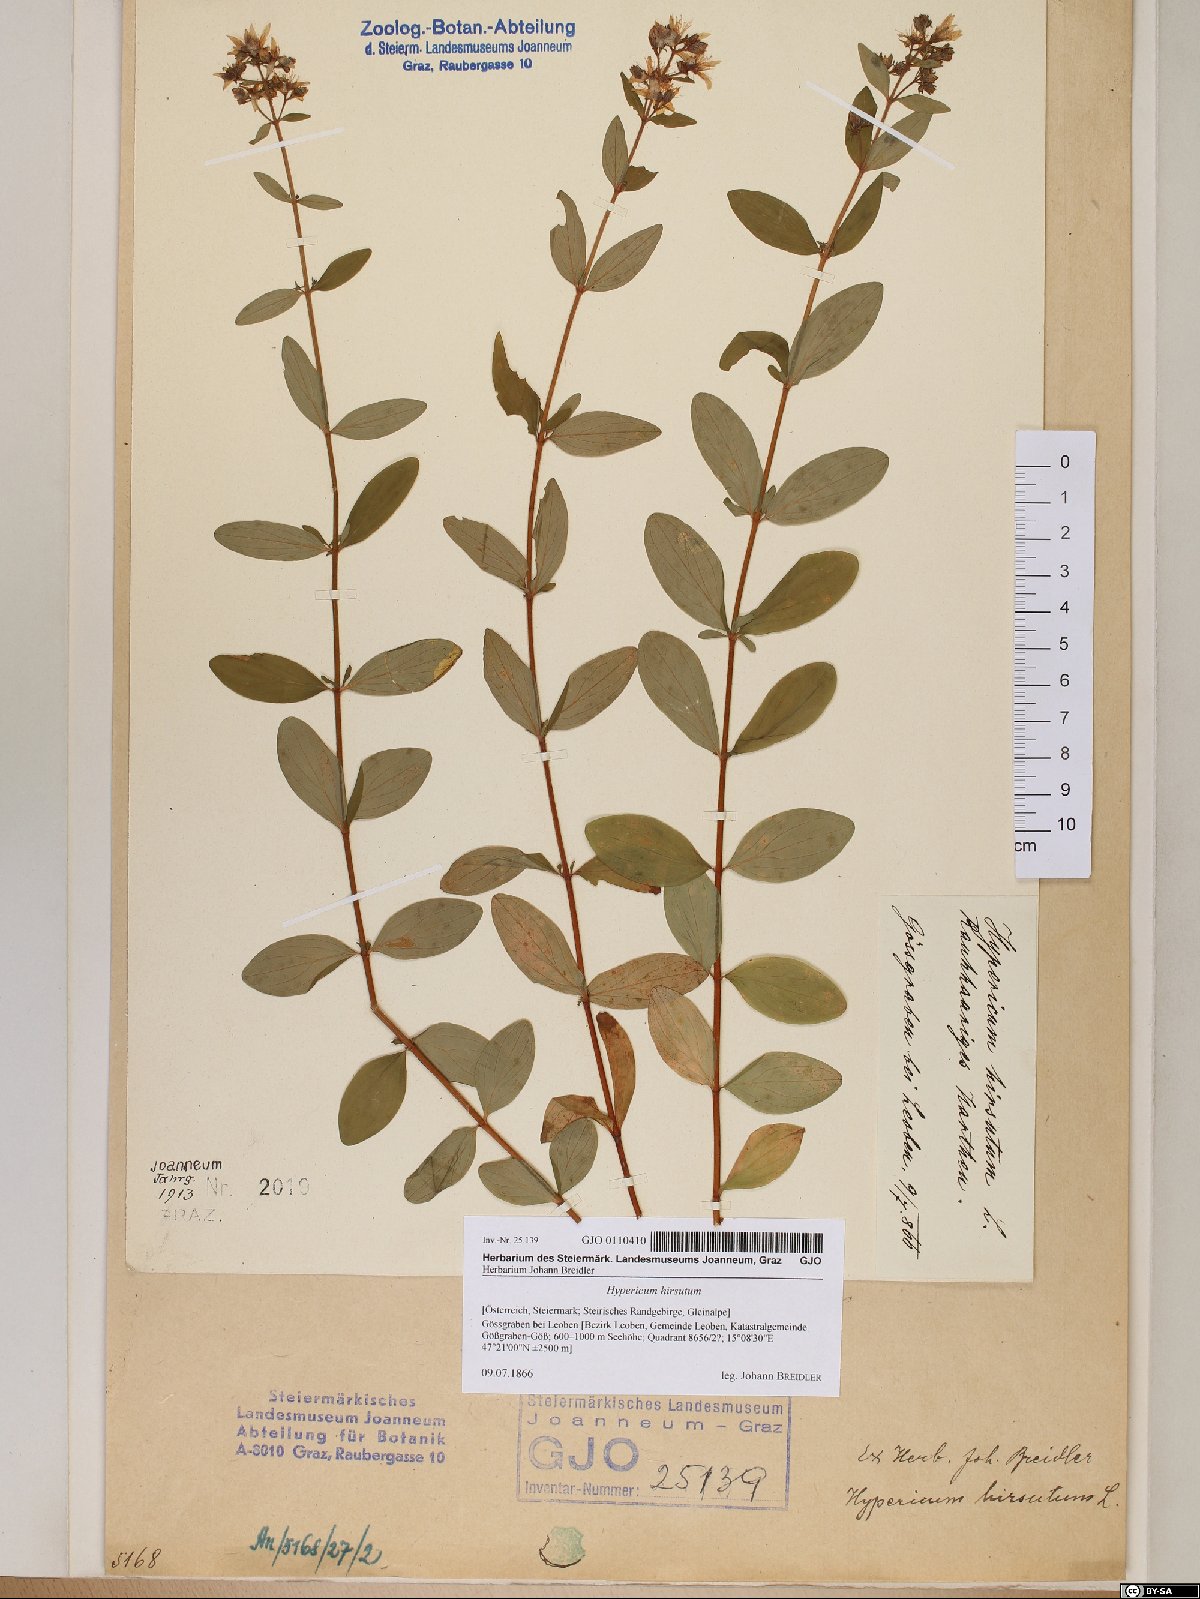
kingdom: Plantae
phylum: Tracheophyta
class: Magnoliopsida
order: Malpighiales
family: Hypericaceae
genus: Hypericum
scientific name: Hypericum hirsutum
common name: Hairy st. john's-wort
